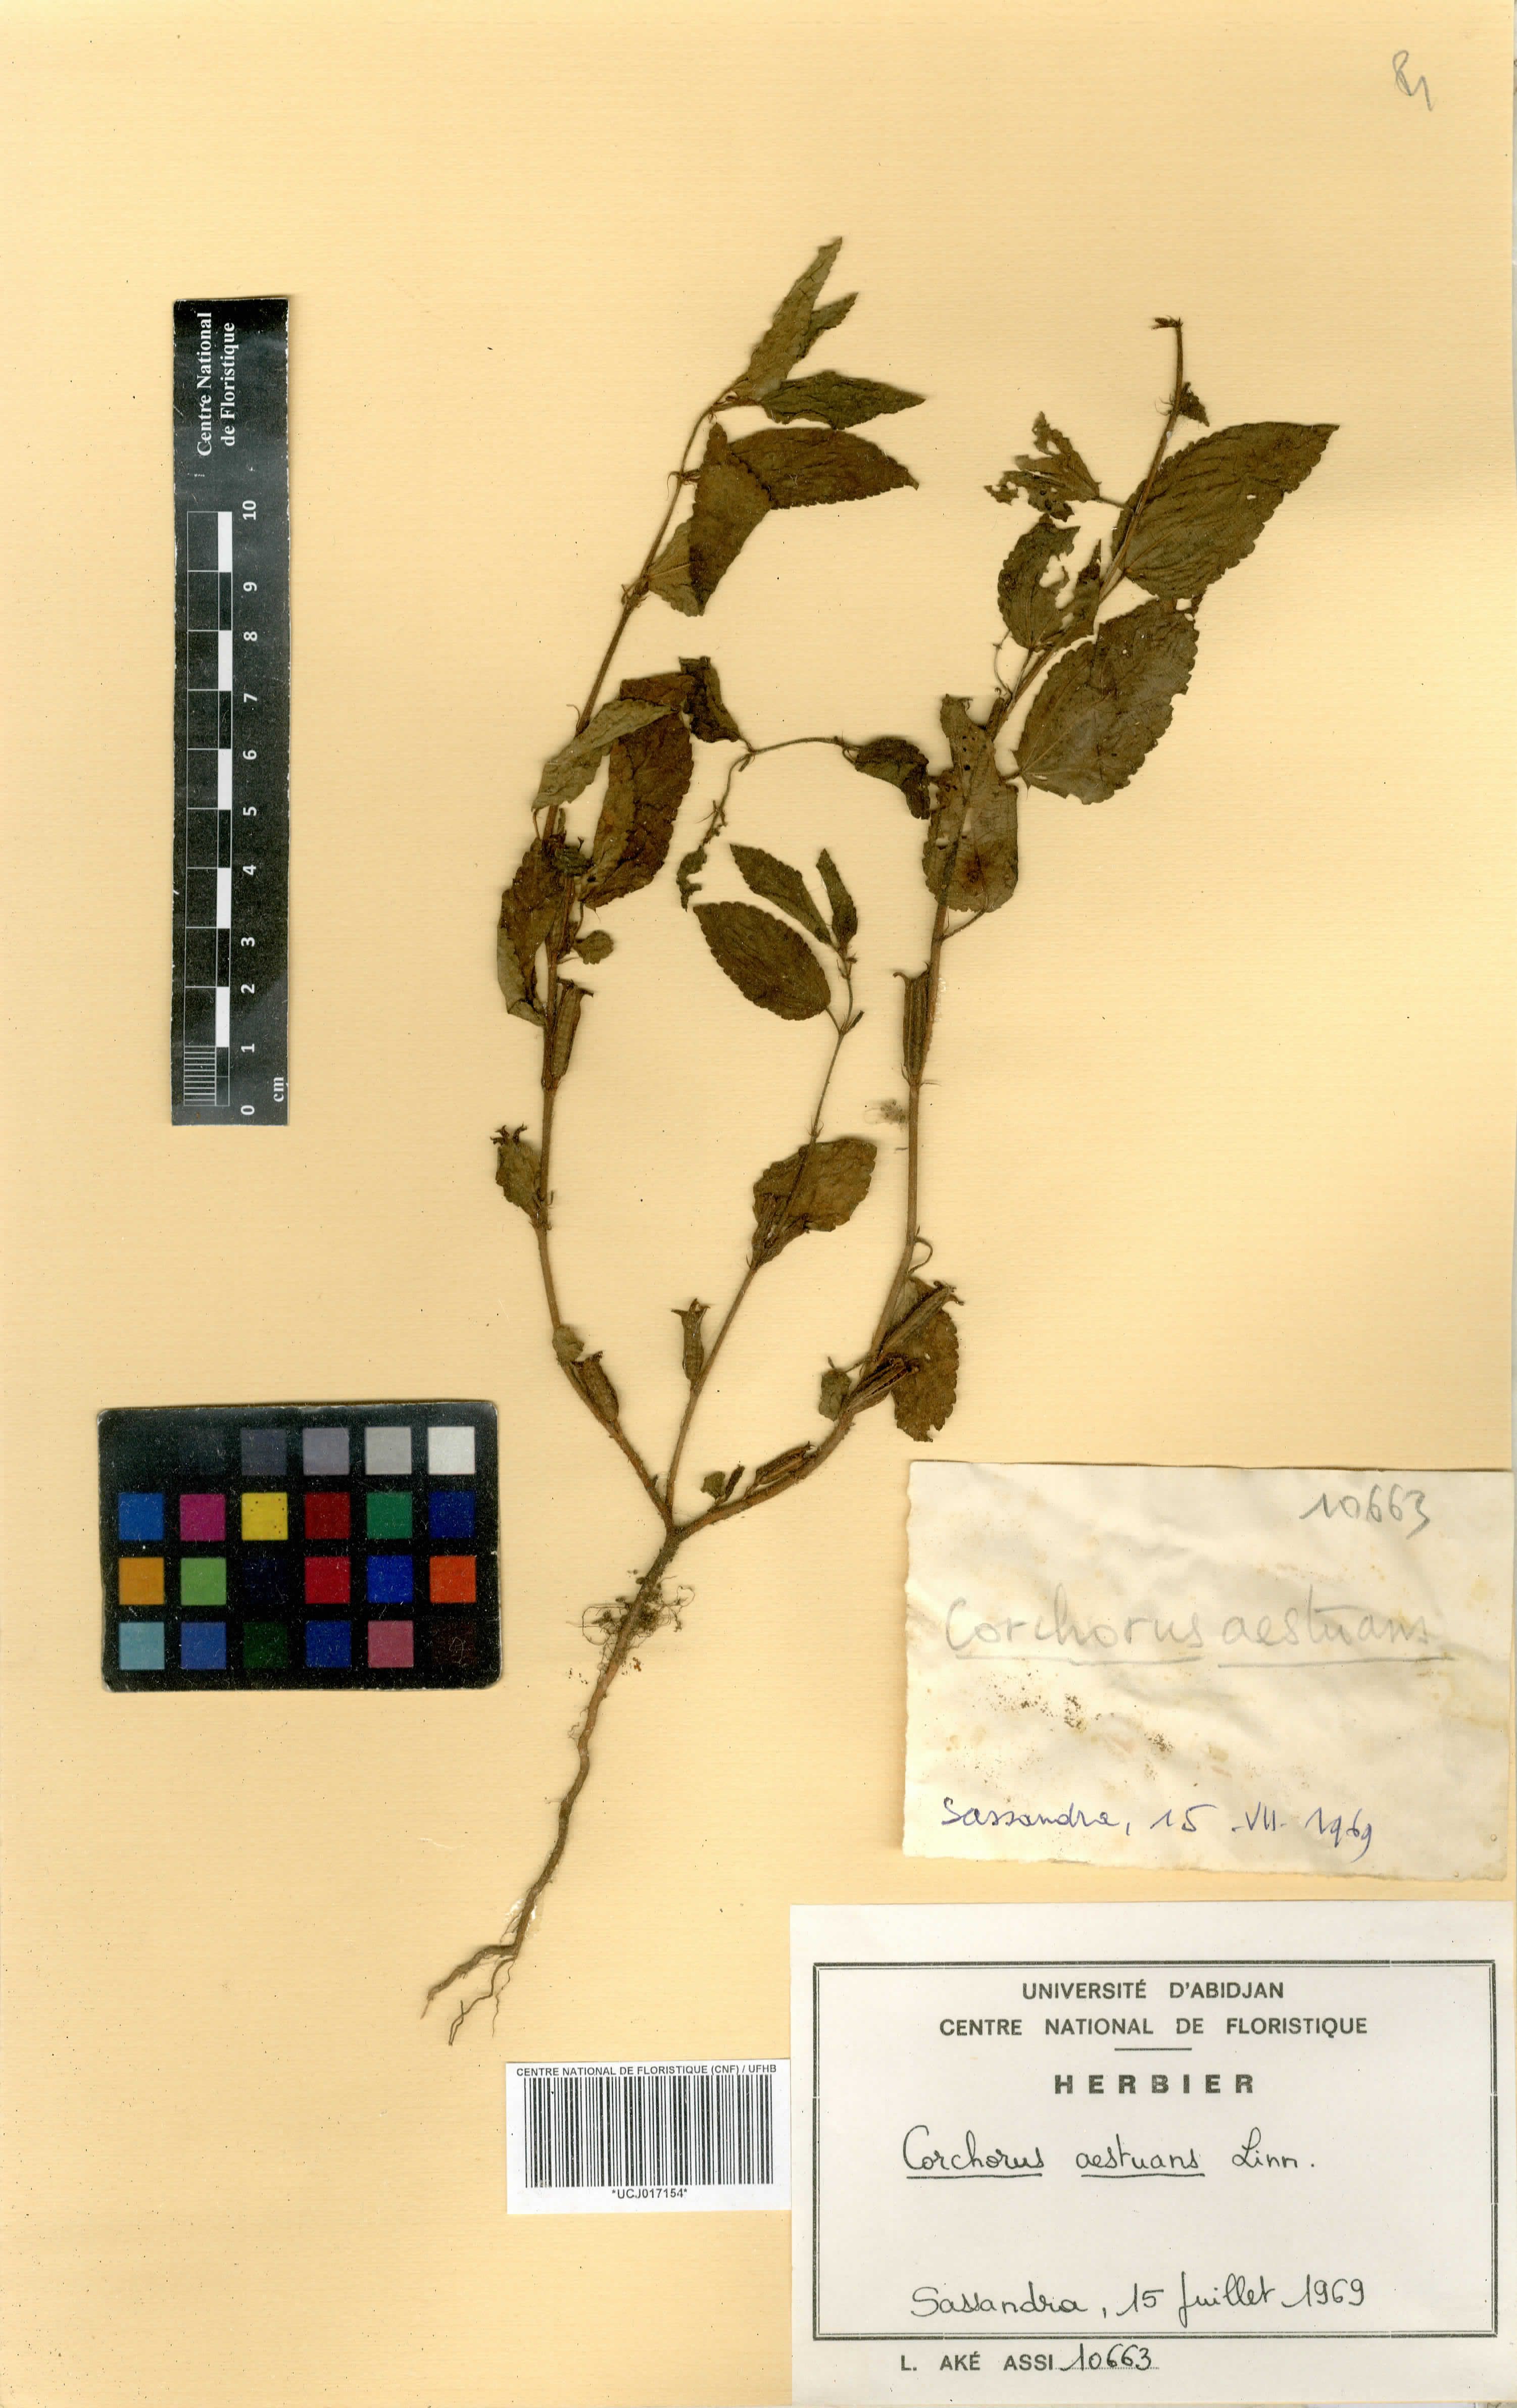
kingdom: Plantae
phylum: Tracheophyta
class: Magnoliopsida
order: Malvales
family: Malvaceae
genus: Corchorus
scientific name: Corchorus aestuans
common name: Jute
